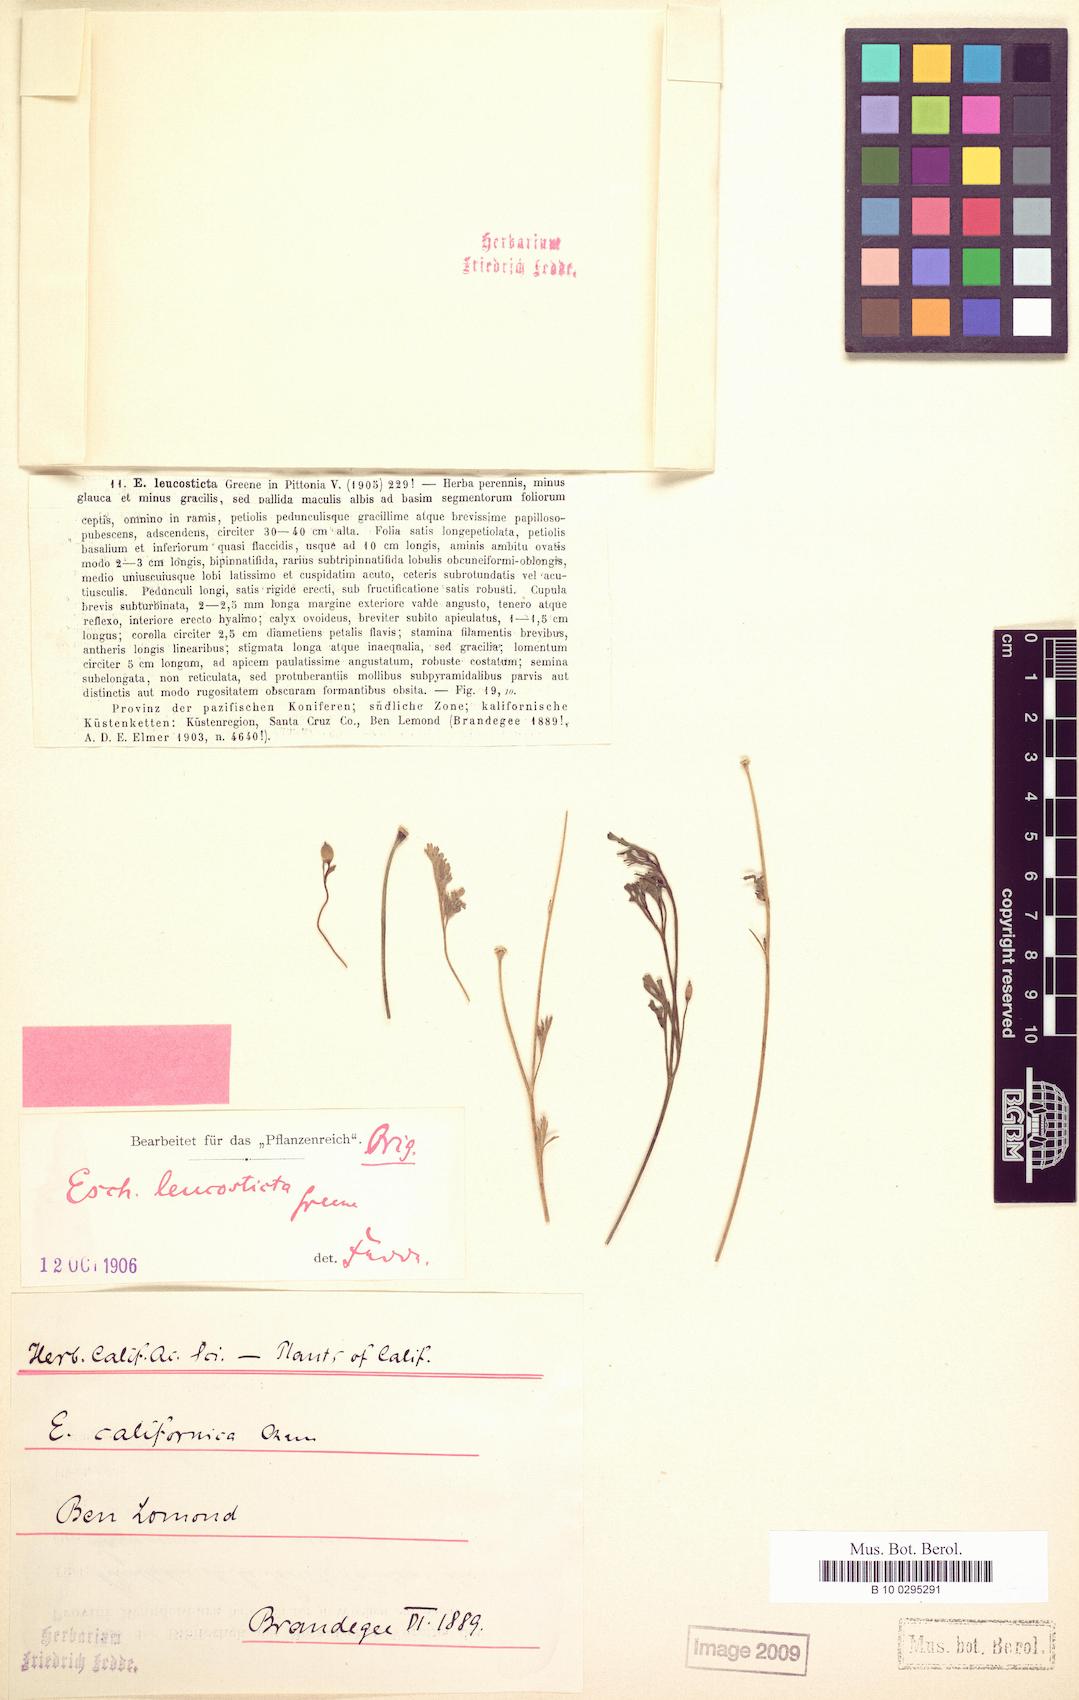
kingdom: Plantae
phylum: Tracheophyta
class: Magnoliopsida
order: Ranunculales
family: Papaveraceae
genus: Eschscholzia
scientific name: Eschscholzia californica
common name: California poppy
